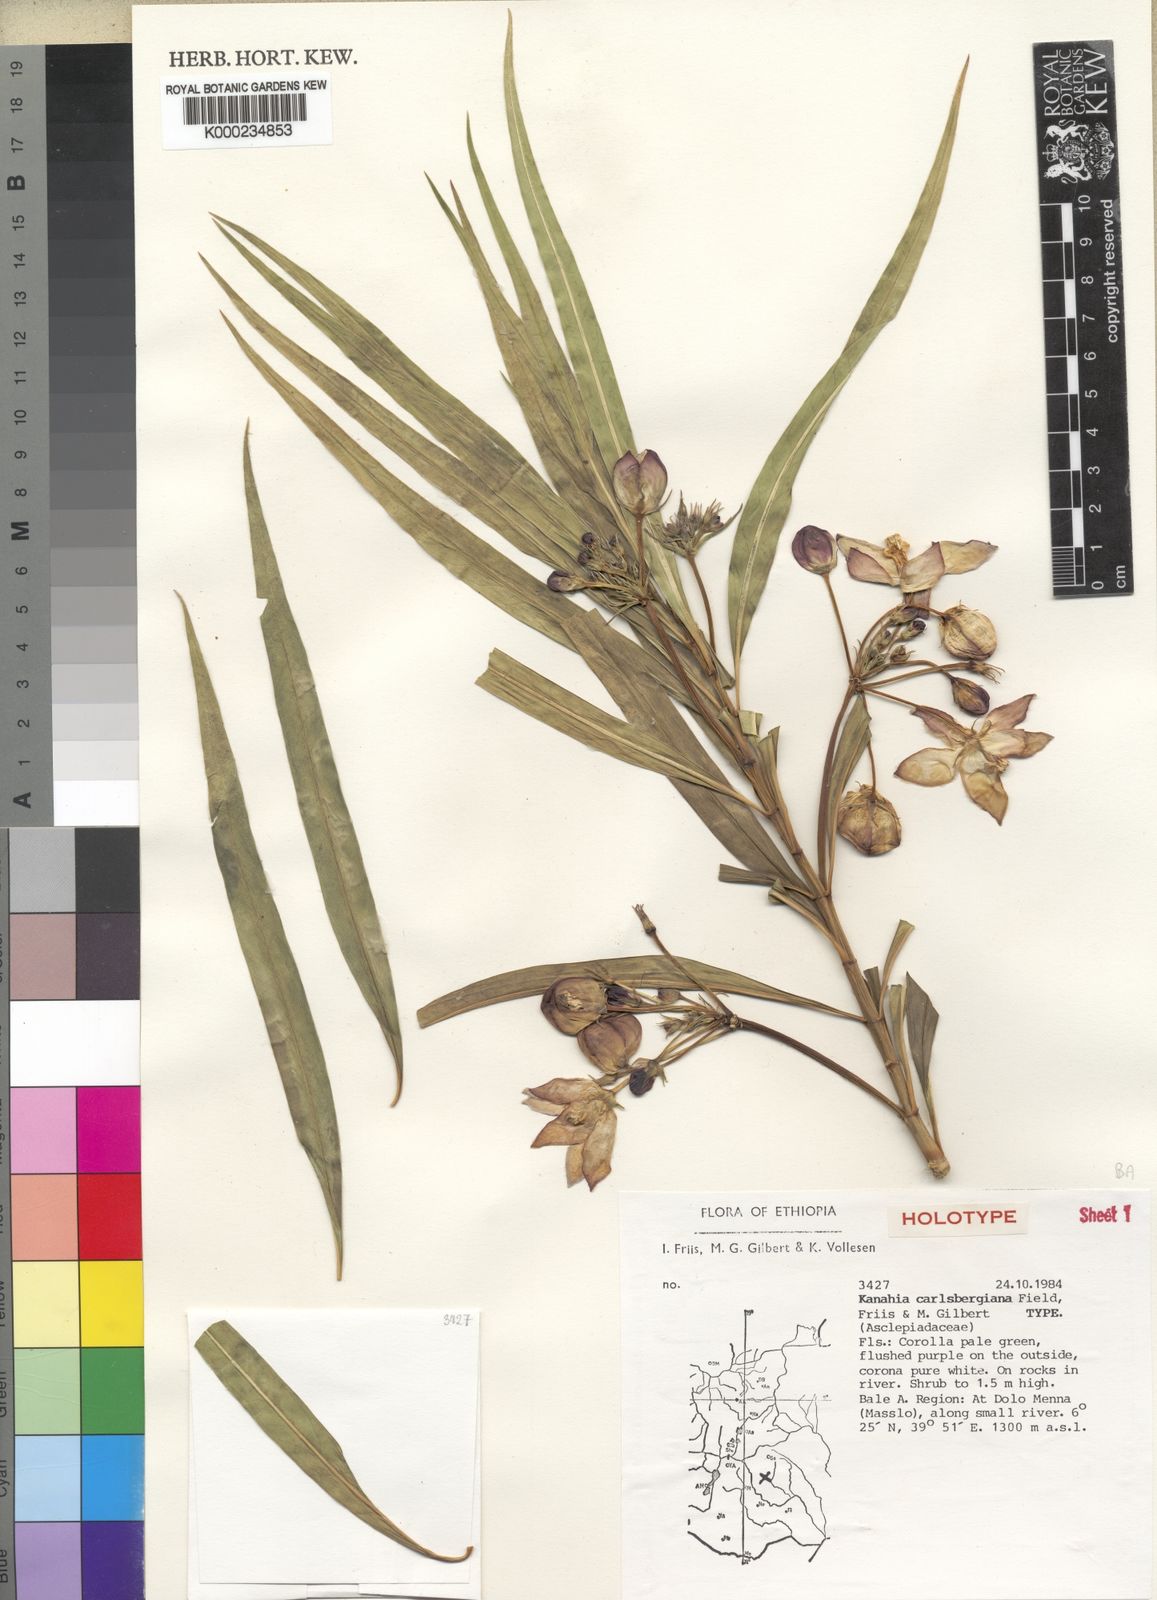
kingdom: Plantae
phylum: Tracheophyta
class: Magnoliopsida
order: Gentianales
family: Apocynaceae
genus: Kanahia
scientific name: Kanahia carlsbergiana
